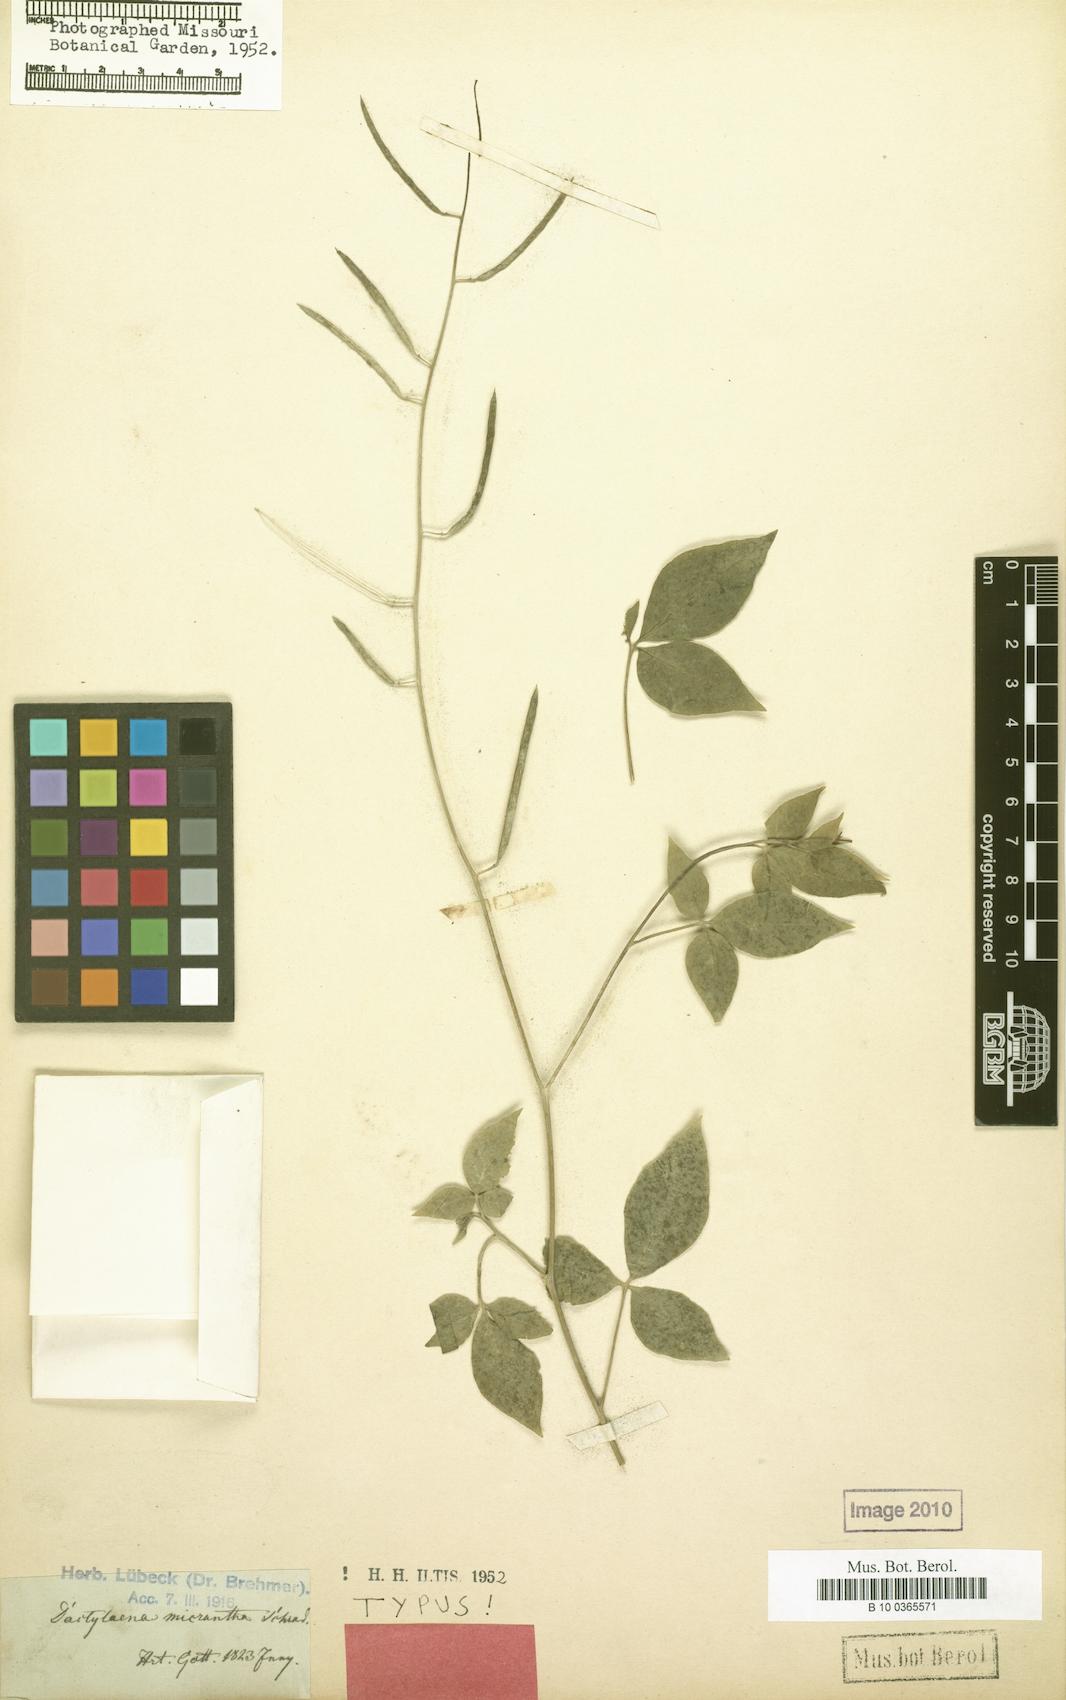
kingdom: Plantae
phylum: Tracheophyta
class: Magnoliopsida
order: Brassicales
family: Cleomaceae
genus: Dactylaena
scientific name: Dactylaena monandra
